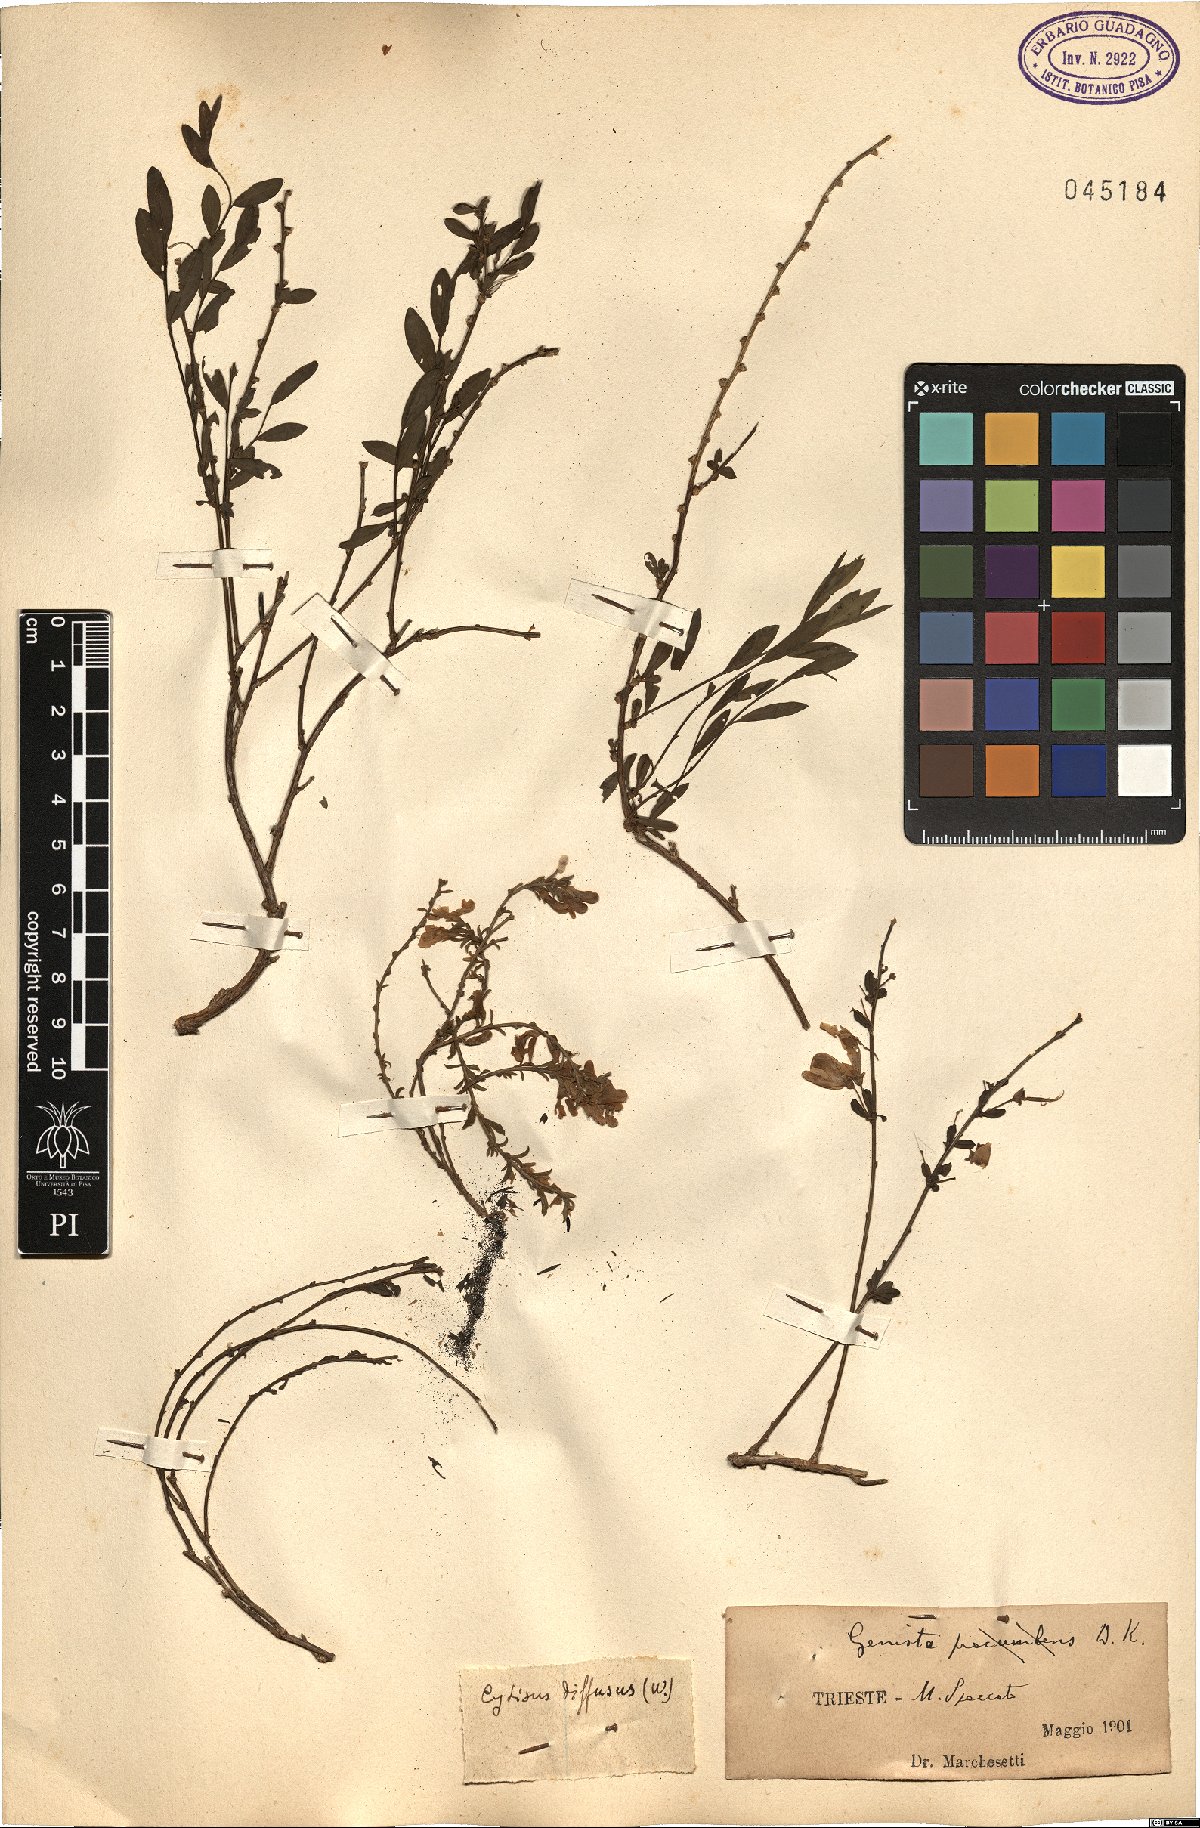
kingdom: Plantae
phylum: Tracheophyta
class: Magnoliopsida
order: Fabales
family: Fabaceae
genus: Cytisus
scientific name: Cytisus procumbens
